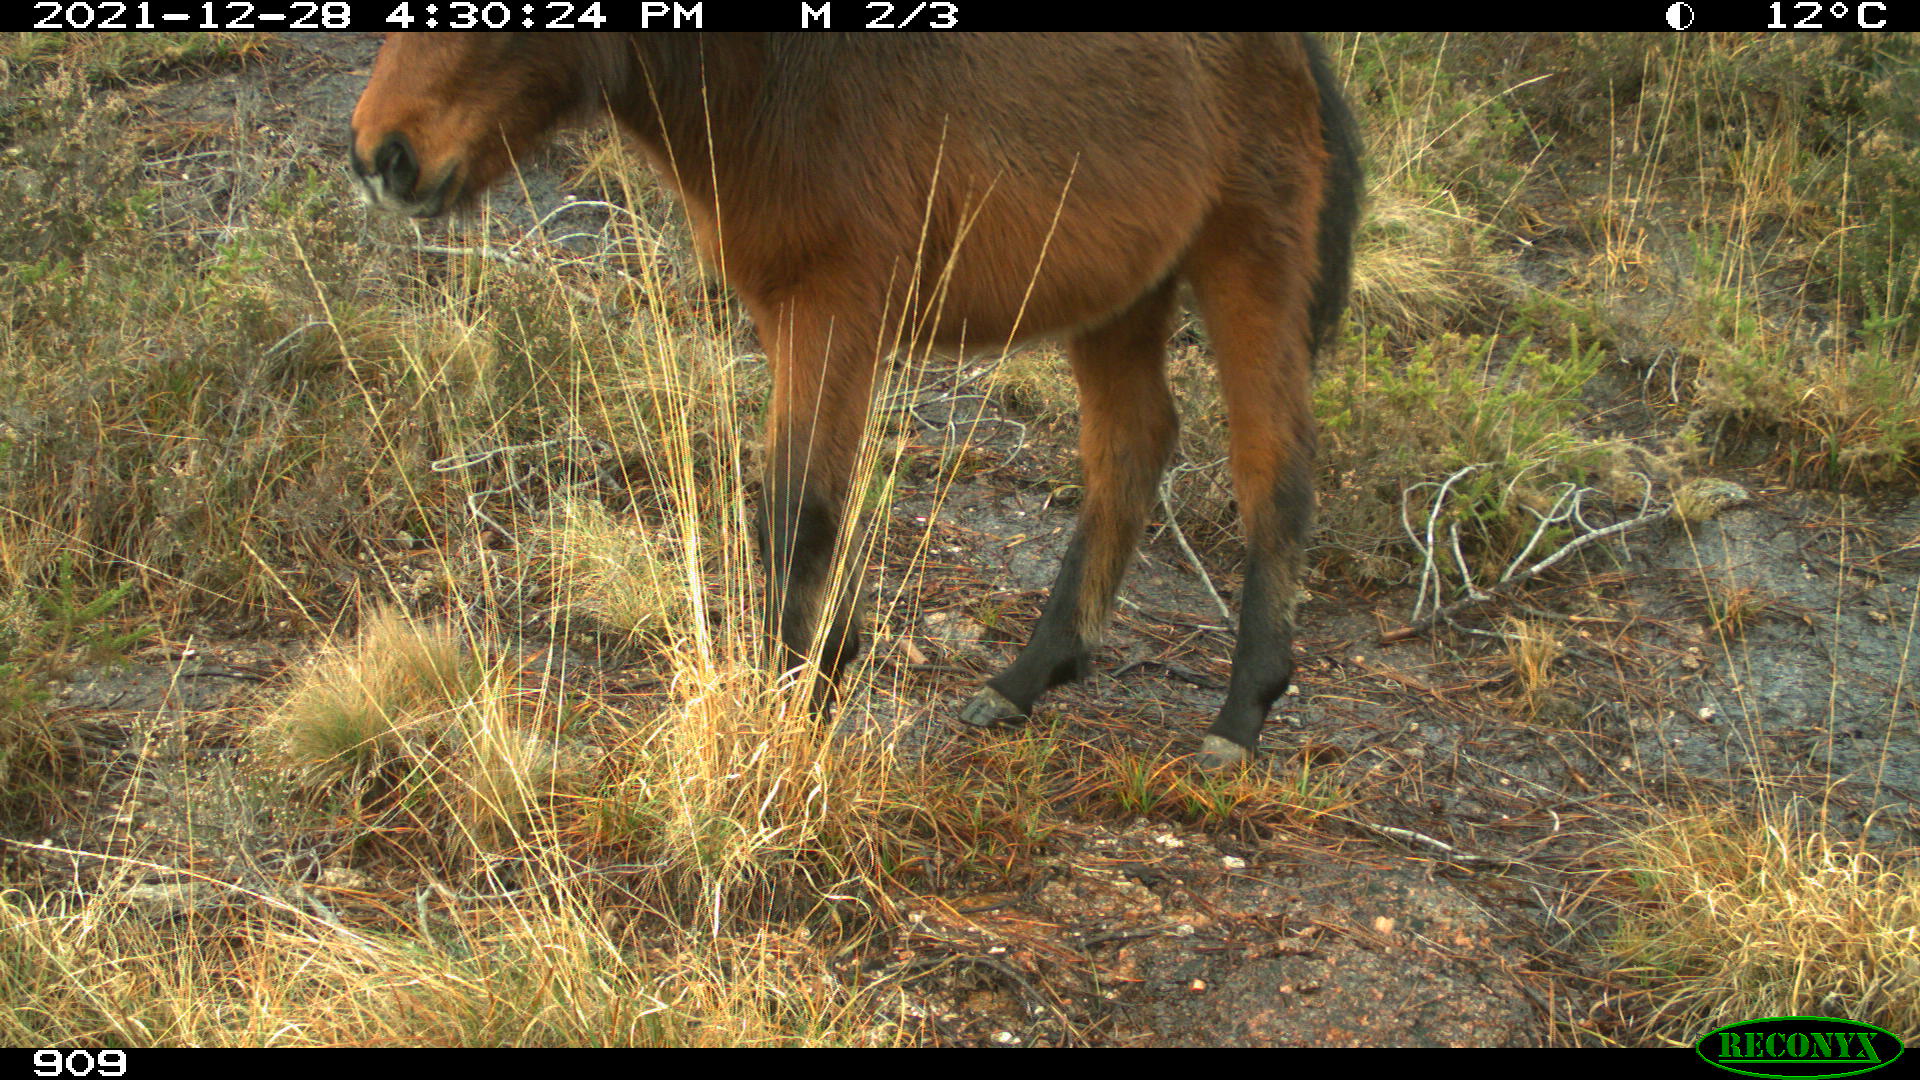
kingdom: Animalia
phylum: Chordata
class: Mammalia
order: Perissodactyla
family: Equidae
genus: Equus
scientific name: Equus caballus
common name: Horse
